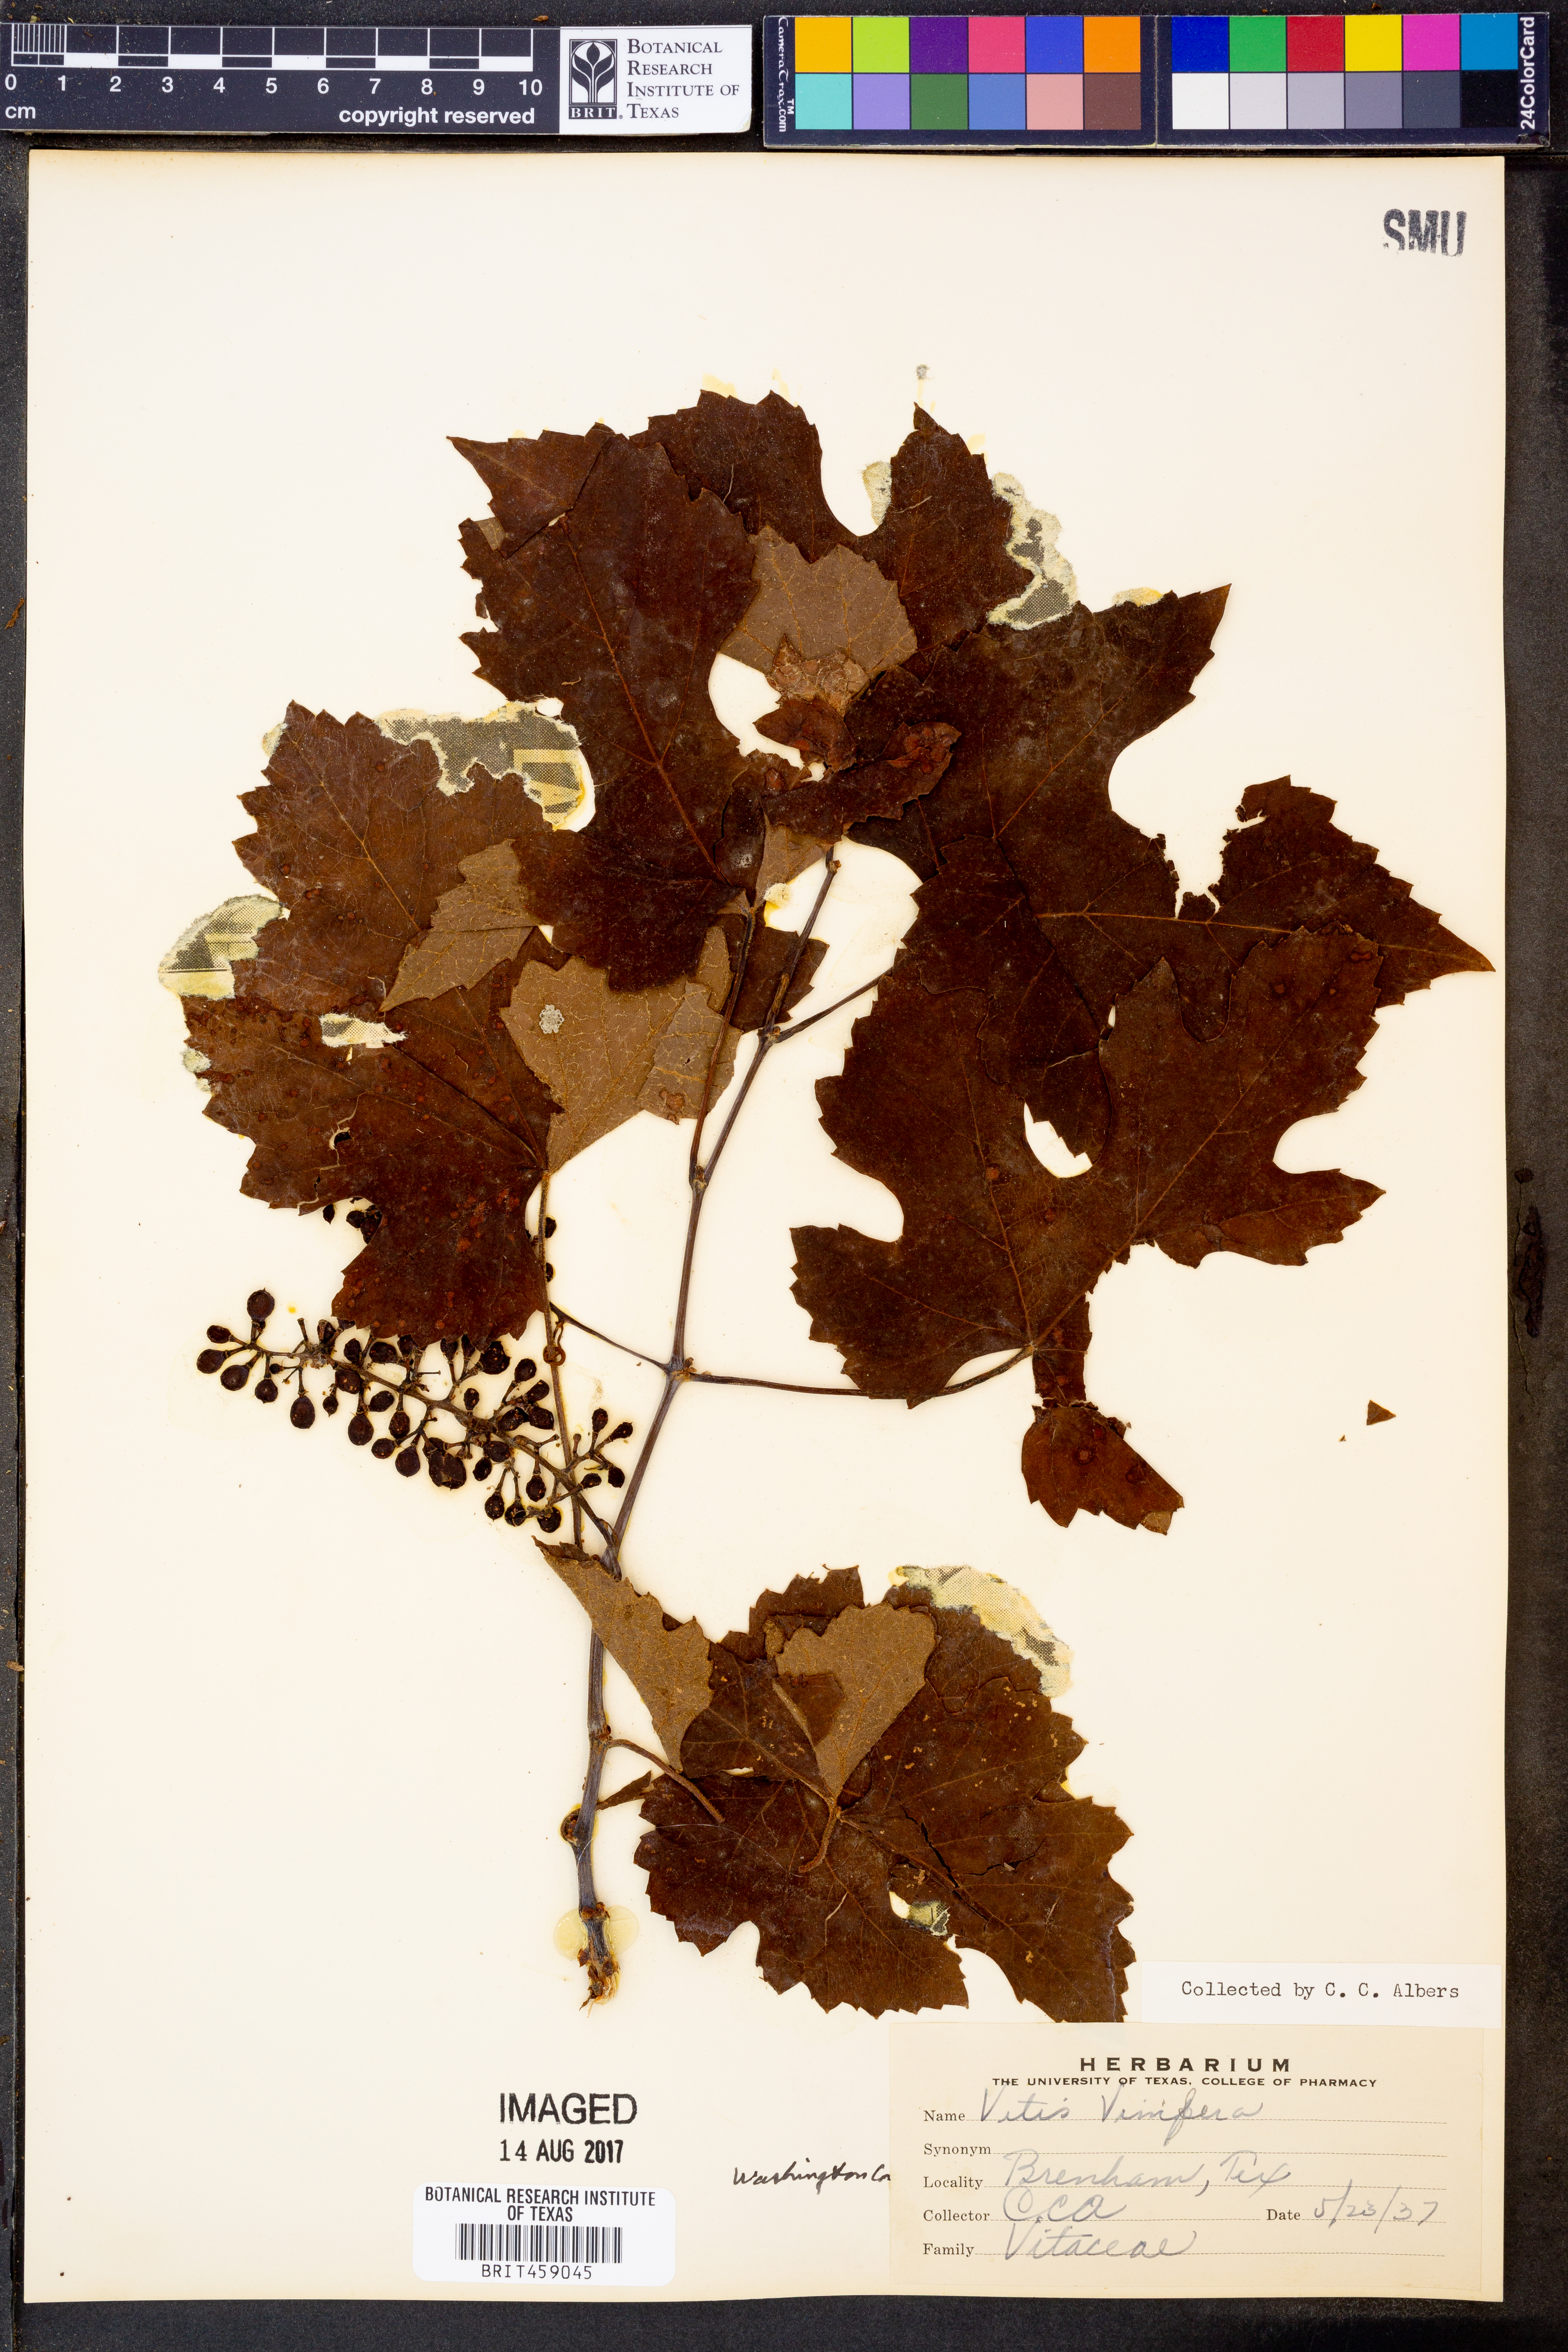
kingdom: Plantae
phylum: Tracheophyta
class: Magnoliopsida
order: Vitales
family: Vitaceae
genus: Vitis
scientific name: Vitis vinifera
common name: Grape-vine
